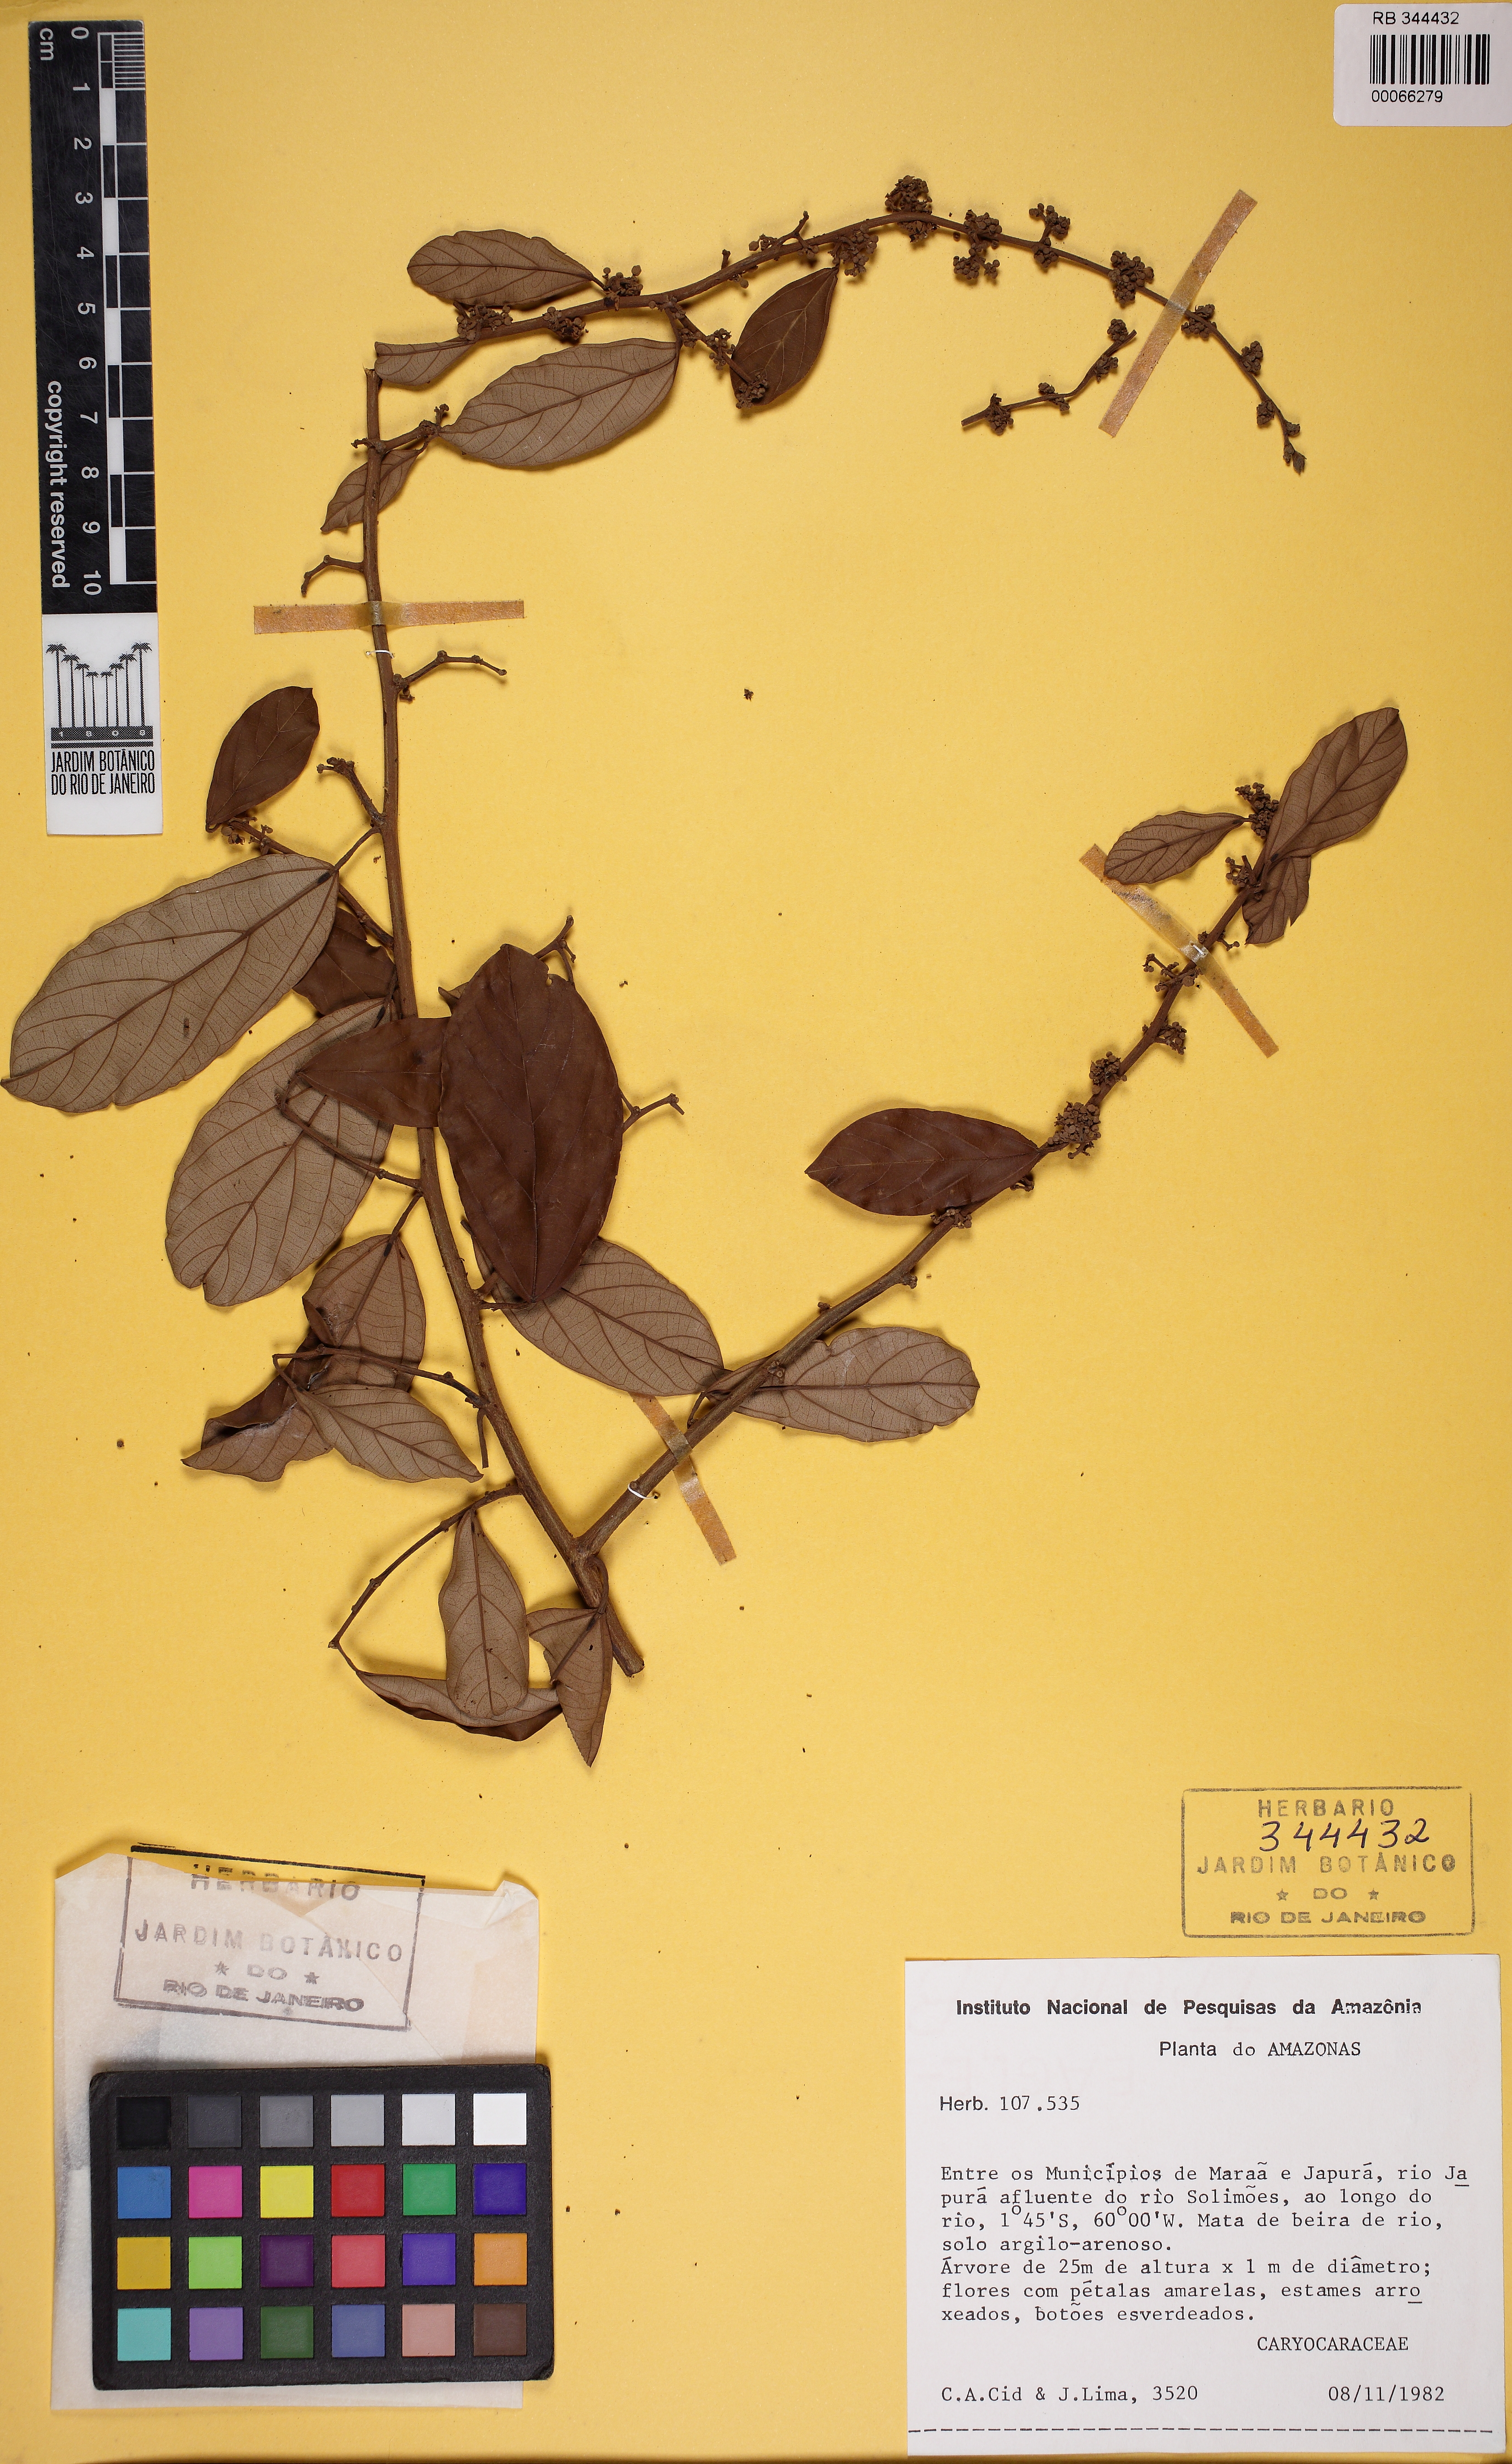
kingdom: Plantae
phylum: Tracheophyta
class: Magnoliopsida
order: Malpighiales
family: Caryocaraceae
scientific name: Caryocaraceae
